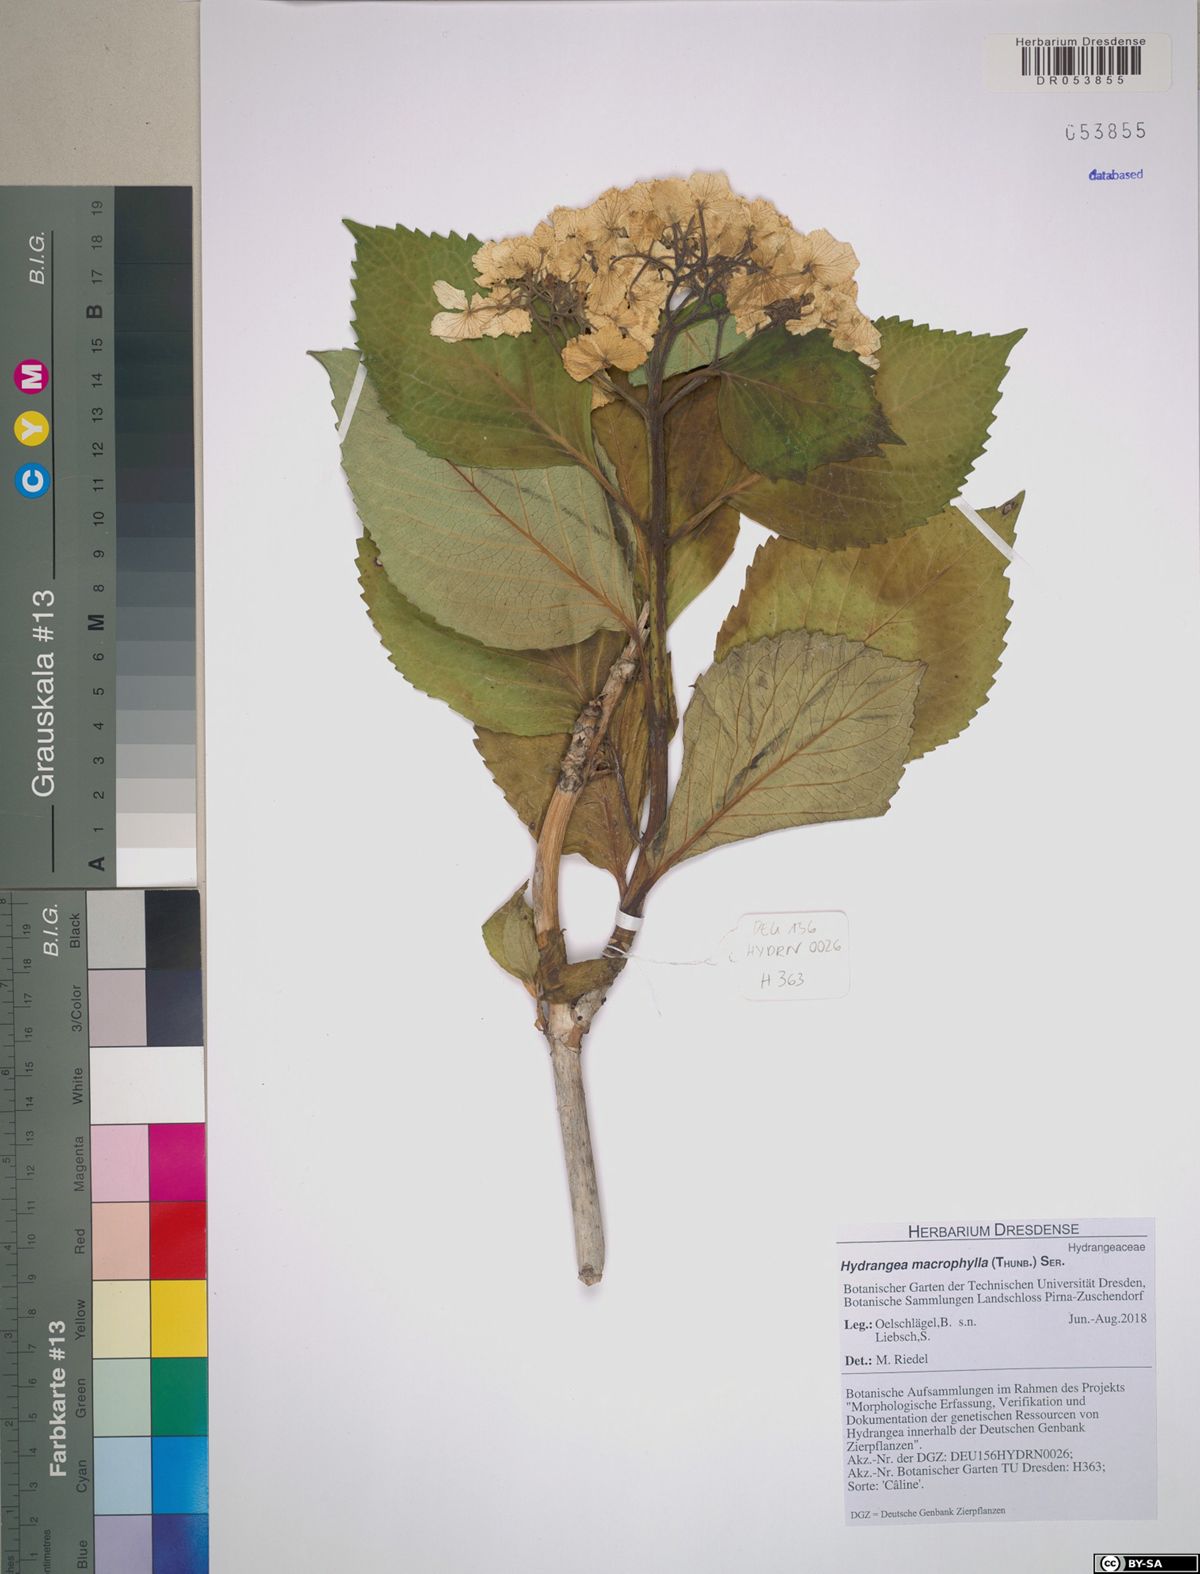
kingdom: Plantae
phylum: Tracheophyta
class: Magnoliopsida
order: Cornales
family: Hydrangeaceae
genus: Hydrangea
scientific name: Hydrangea macrophylla
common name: Hydrangea
